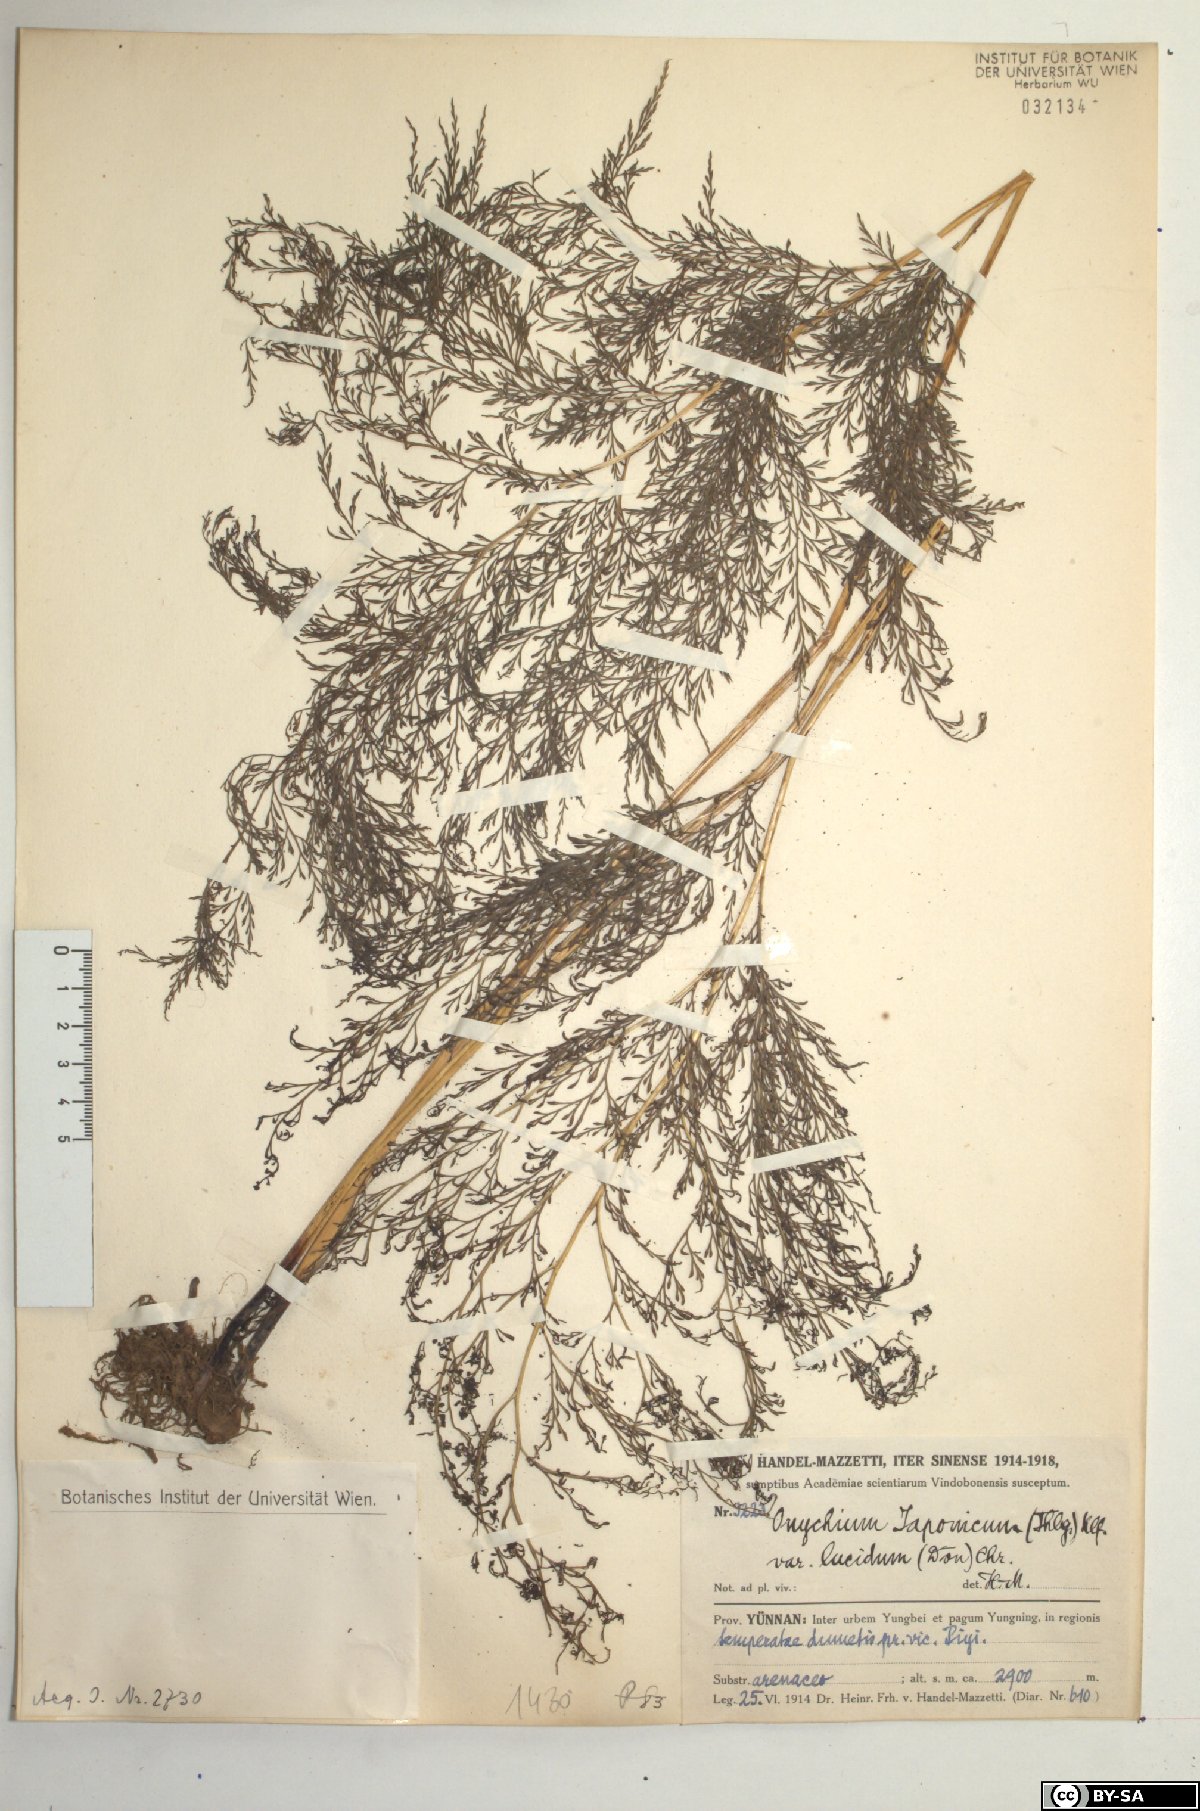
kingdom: Plantae
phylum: Tracheophyta
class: Polypodiopsida
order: Polypodiales
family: Pteridaceae
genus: Onychium
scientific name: Onychium lucidum
